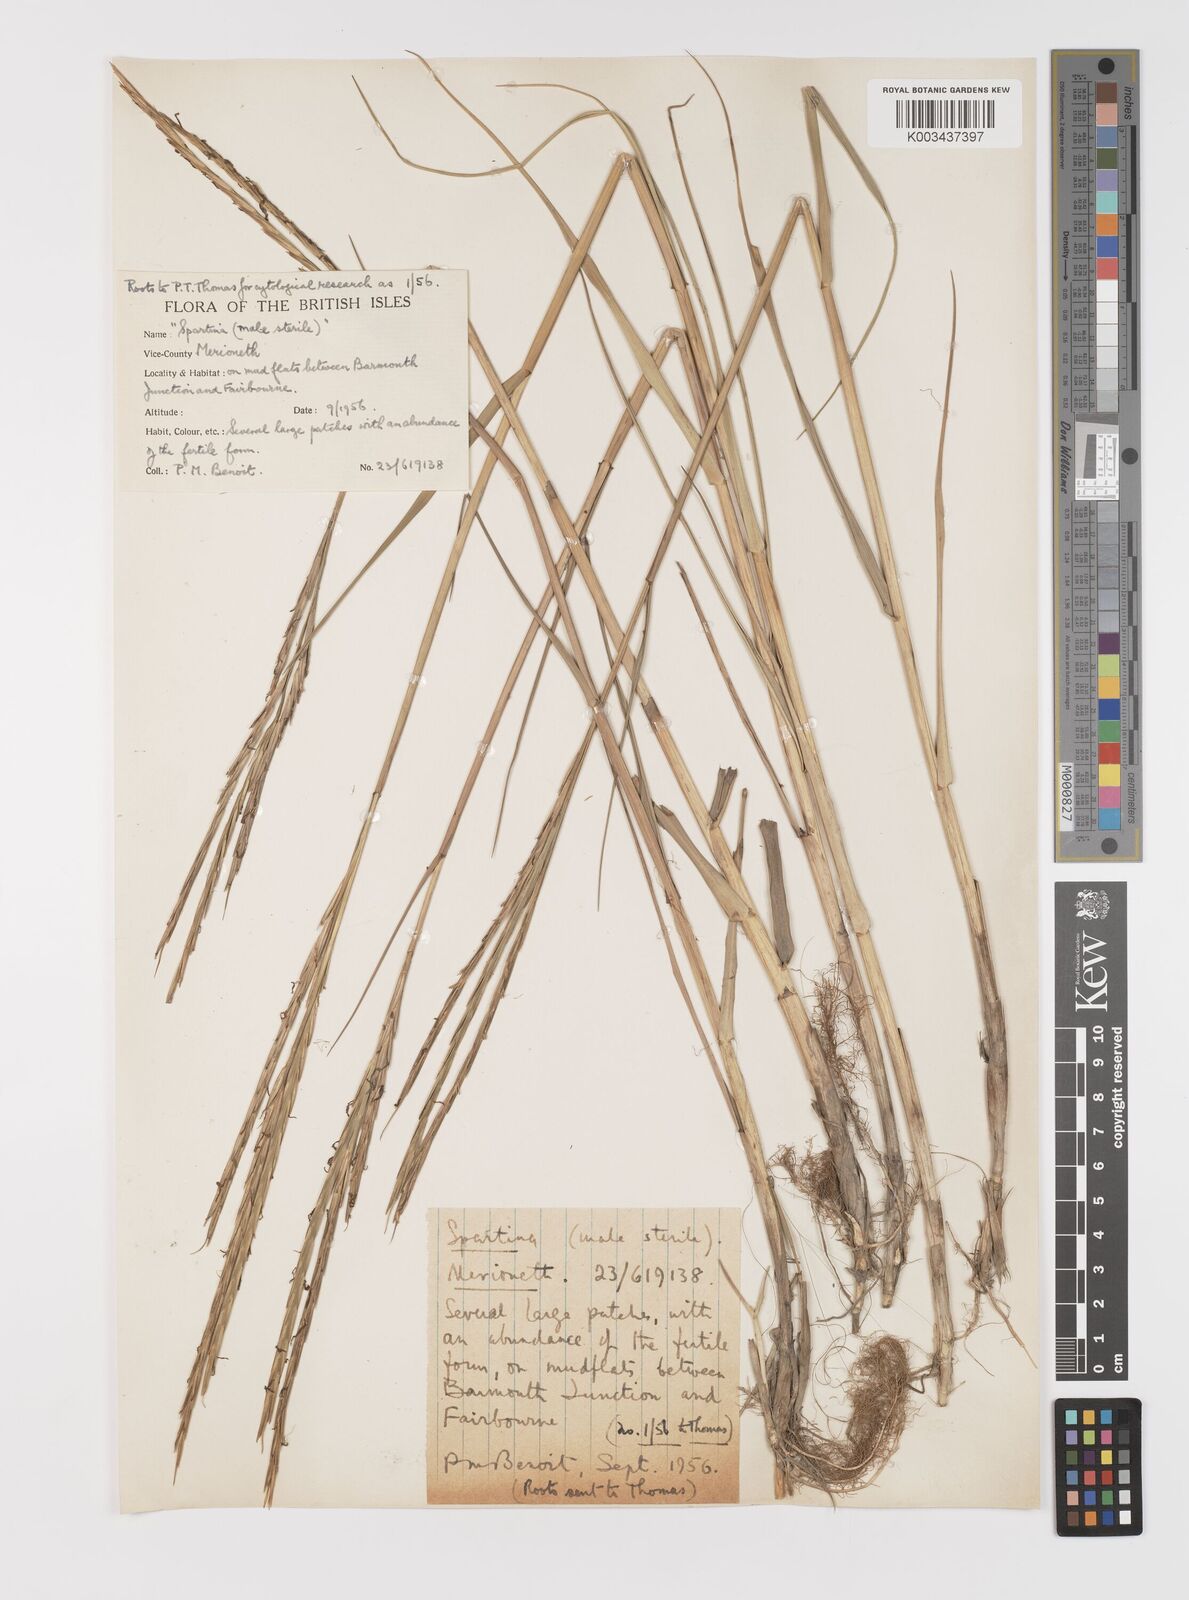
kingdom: Plantae
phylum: Tracheophyta
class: Liliopsida
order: Poales
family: Poaceae
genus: Sporobolus
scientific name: Sporobolus townsendii
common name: Townsend's cordgrass
